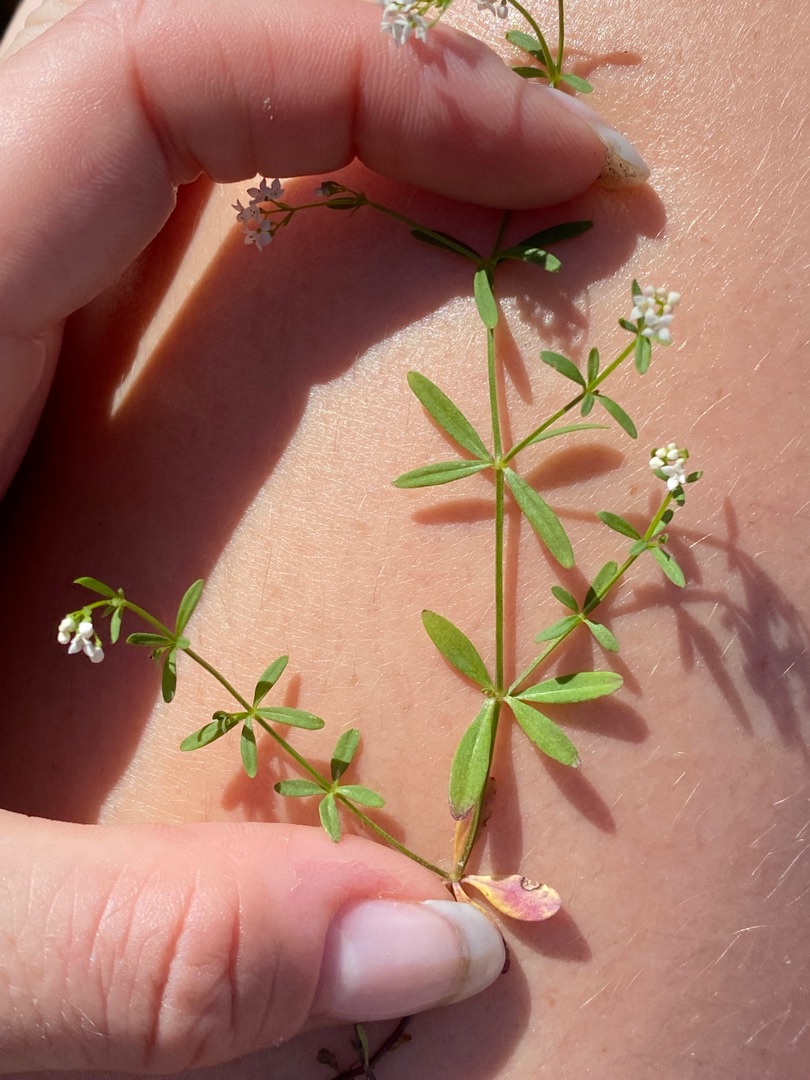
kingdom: Plantae
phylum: Tracheophyta
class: Magnoliopsida
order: Gentianales
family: Rubiaceae
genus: Galium
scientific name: Galium palustre
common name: Kær-snerre
